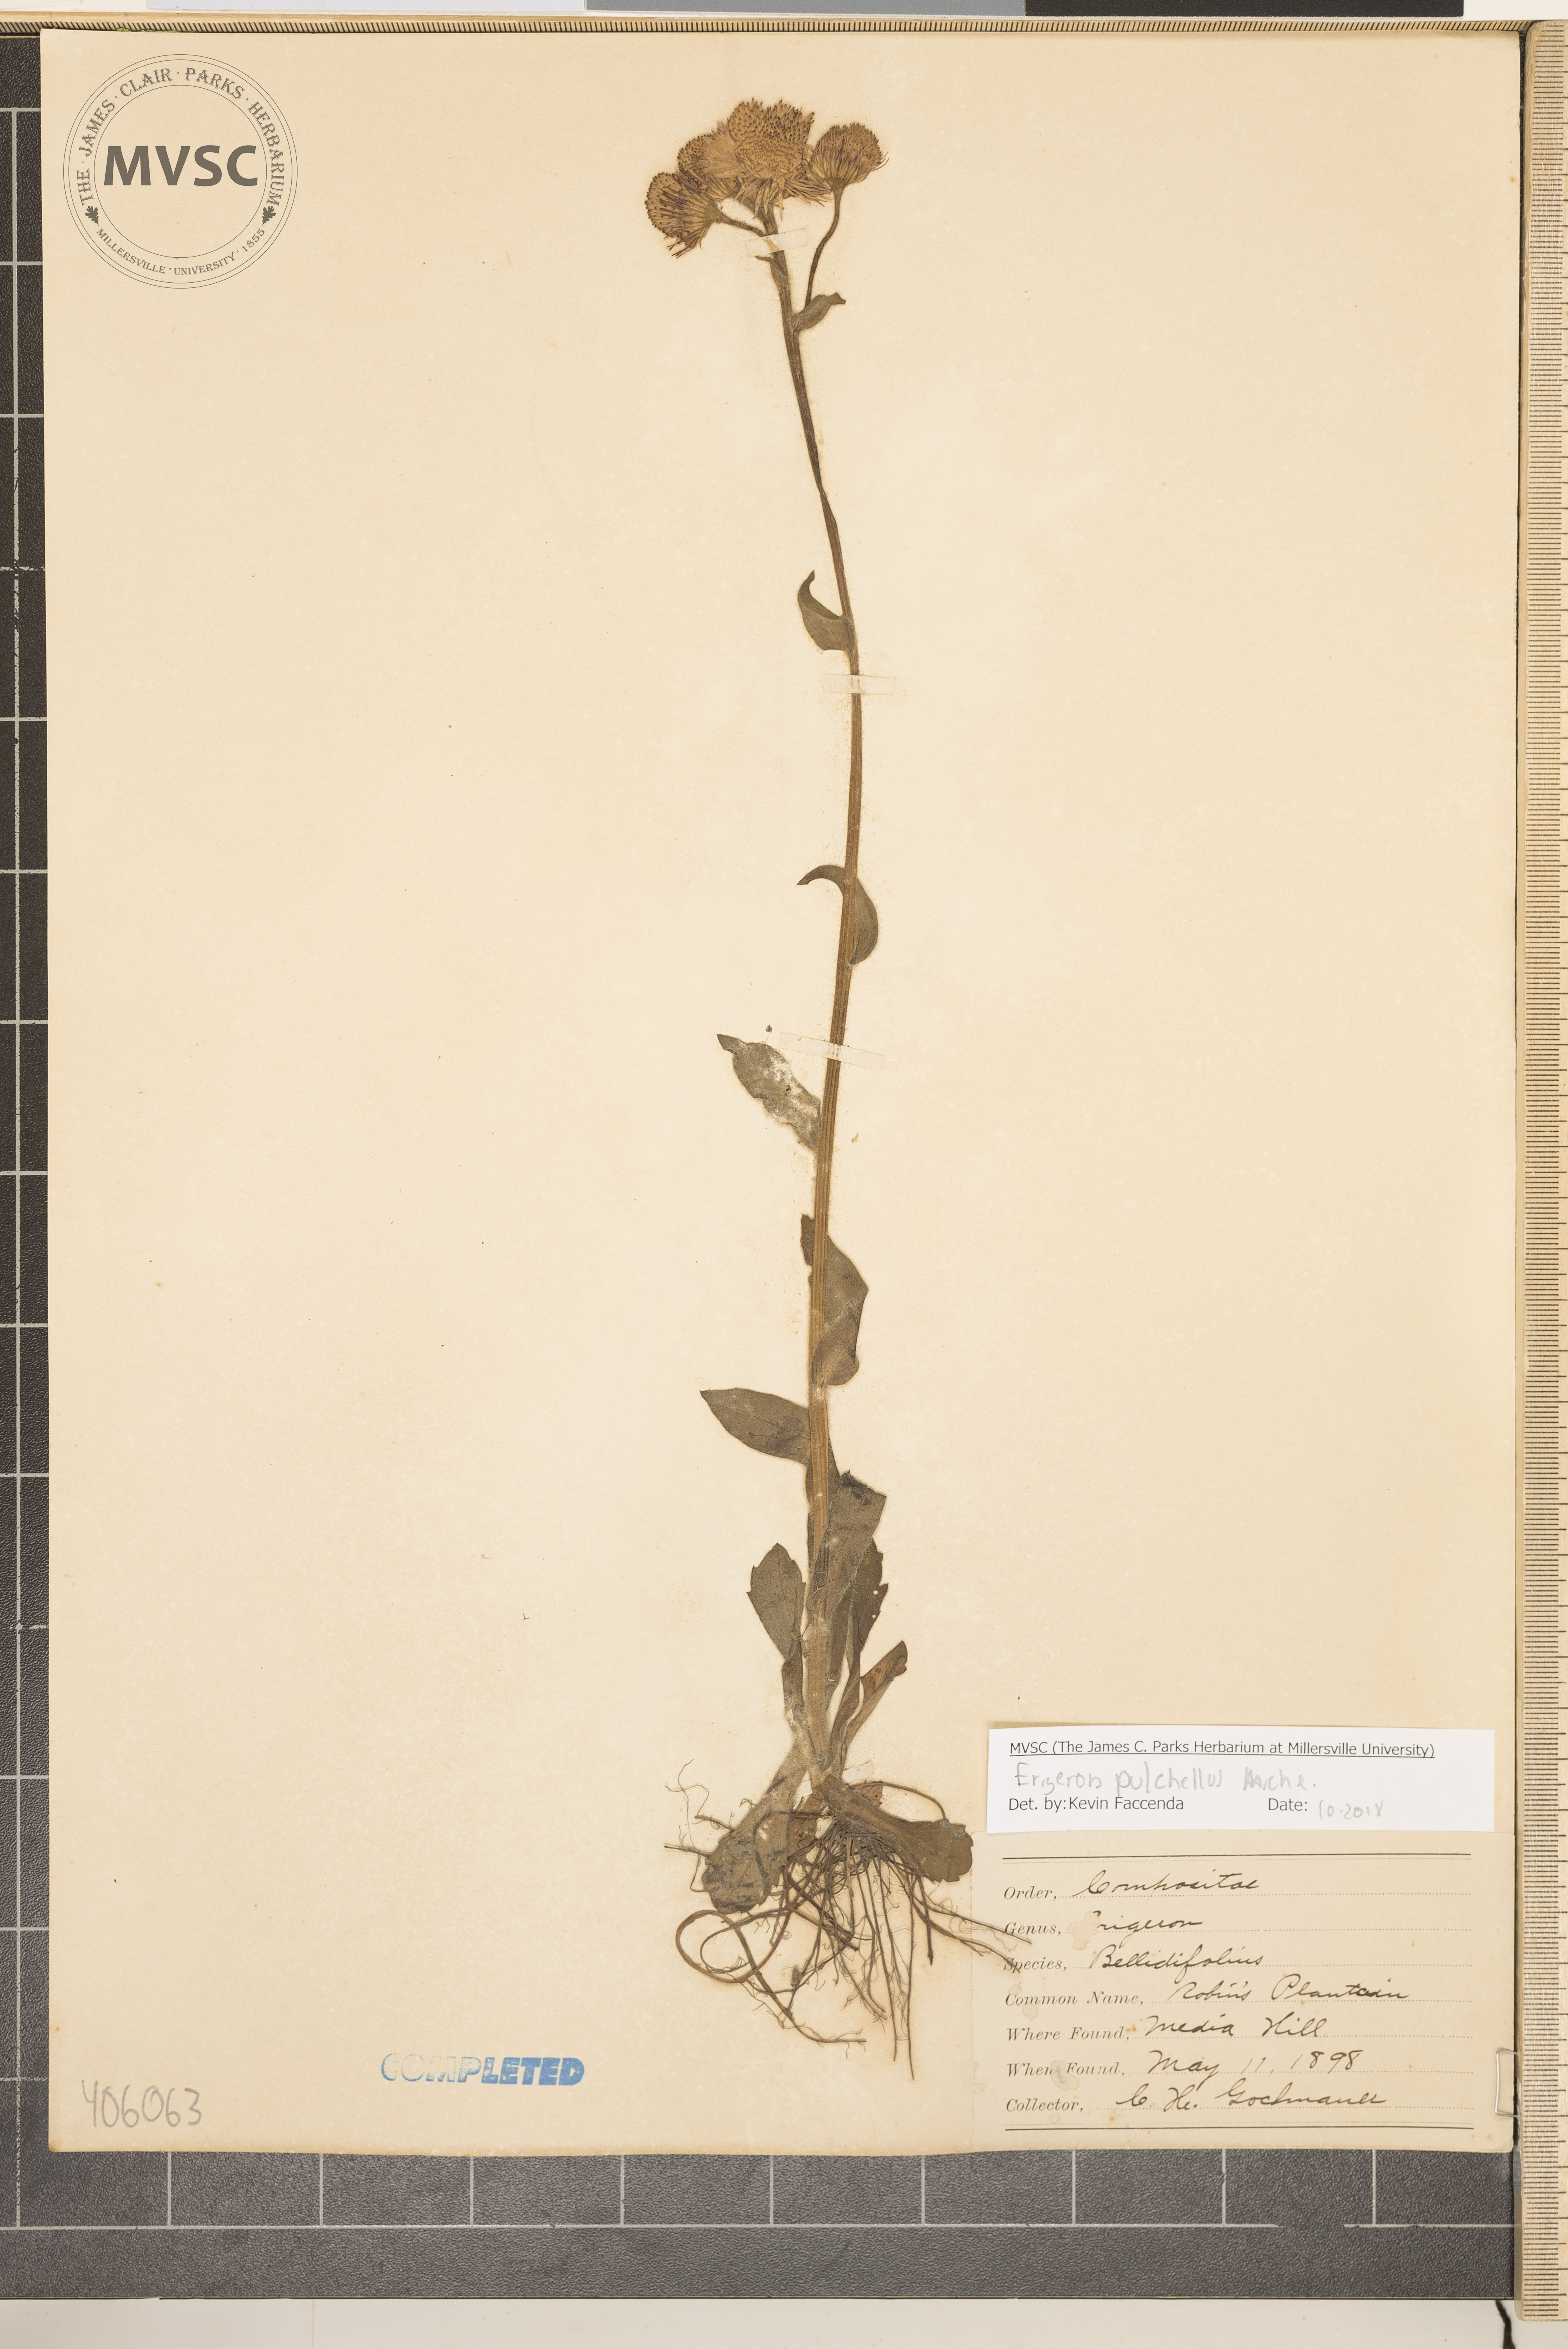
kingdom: Plantae
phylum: Tracheophyta
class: Magnoliopsida
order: Asterales
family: Asteraceae
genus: Erigeron
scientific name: Erigeron pulchellus
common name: Hairy fleabane
